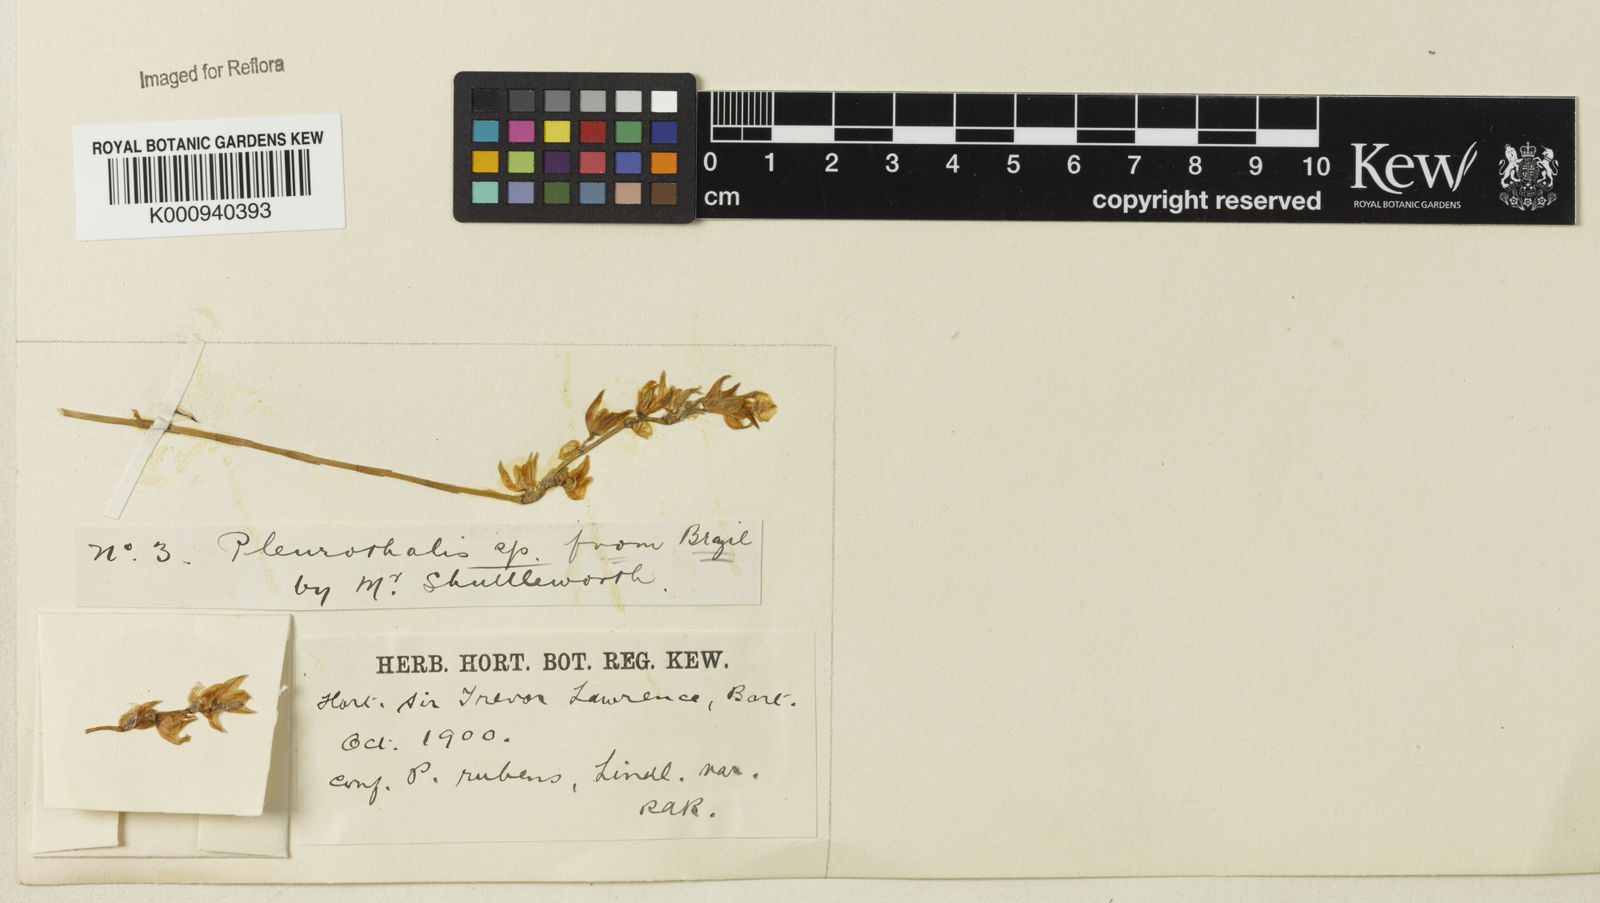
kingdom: Plantae
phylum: Tracheophyta
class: Liliopsida
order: Asparagales
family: Orchidaceae
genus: Pleurothallis
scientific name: Pleurothallis
